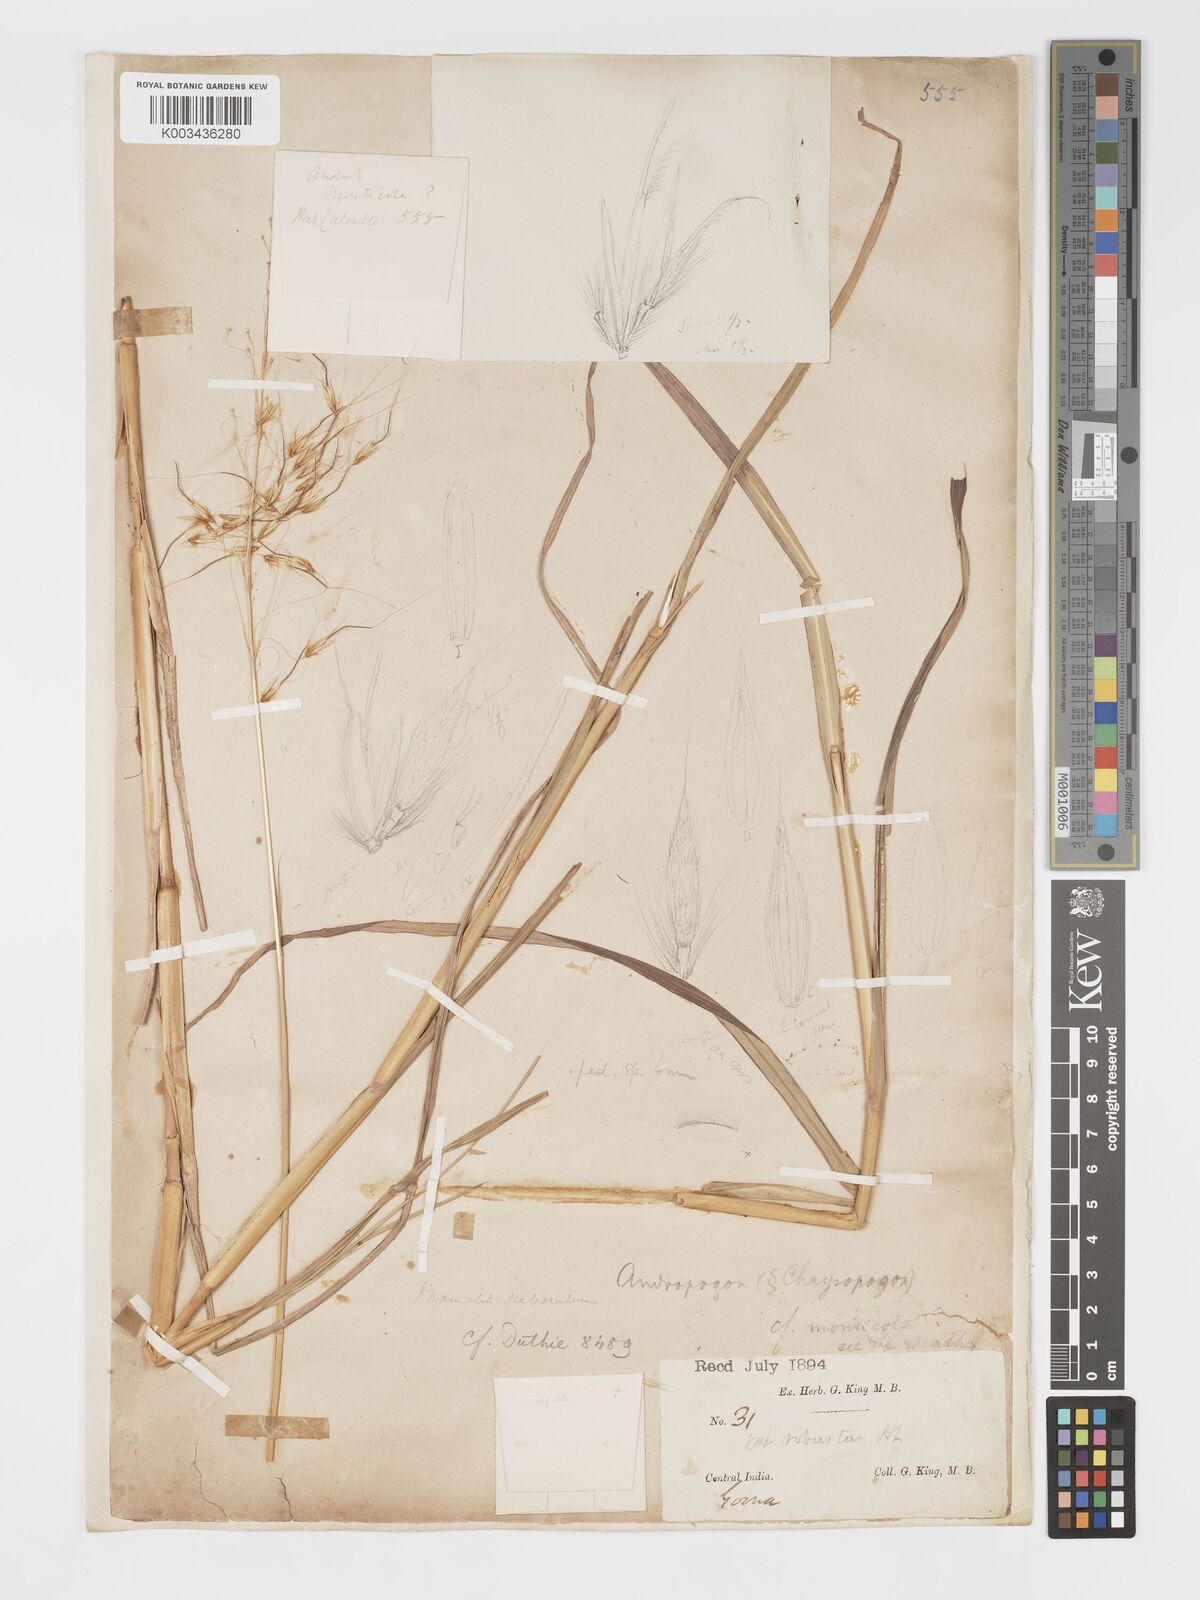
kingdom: Plantae
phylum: Tracheophyta
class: Liliopsida
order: Poales
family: Poaceae
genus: Chrysopogon
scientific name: Chrysopogon fulvus
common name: Red false beardgrass
